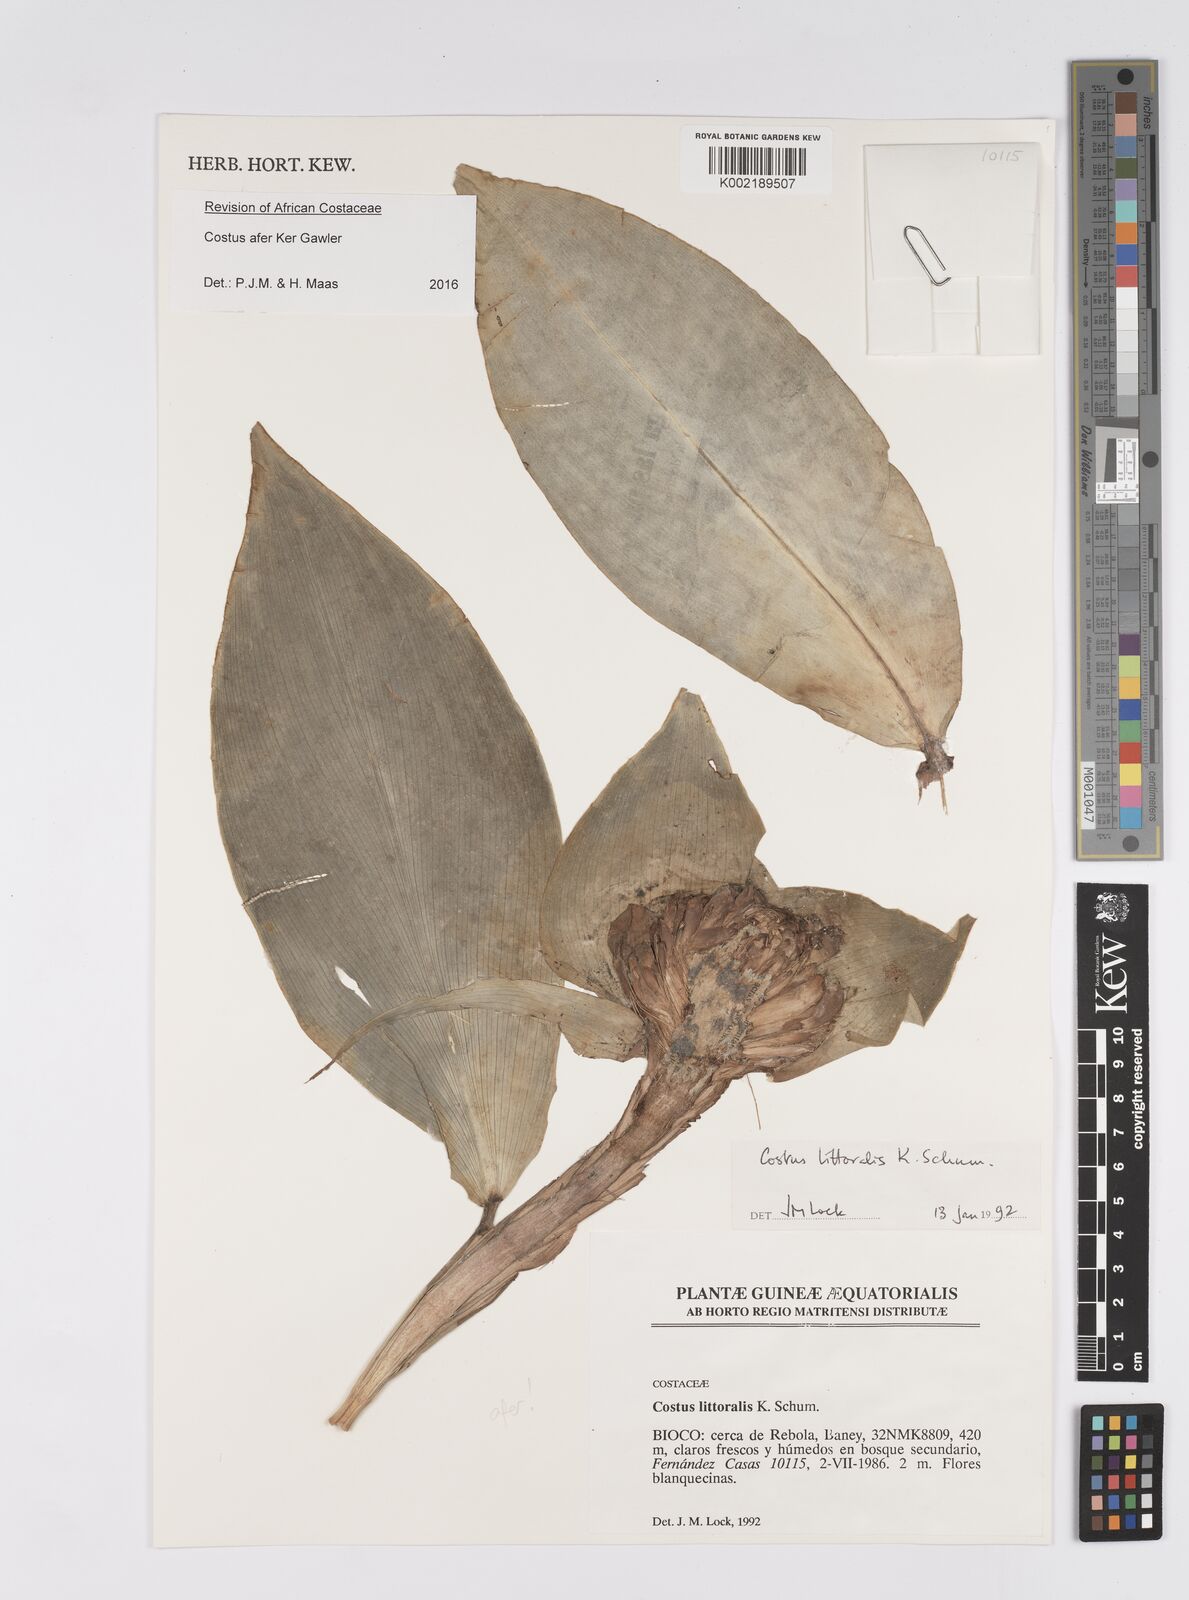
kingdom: Plantae
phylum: Tracheophyta
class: Liliopsida
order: Zingiberales
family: Costaceae
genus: Costus
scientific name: Costus afer
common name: Spiral-ginger
